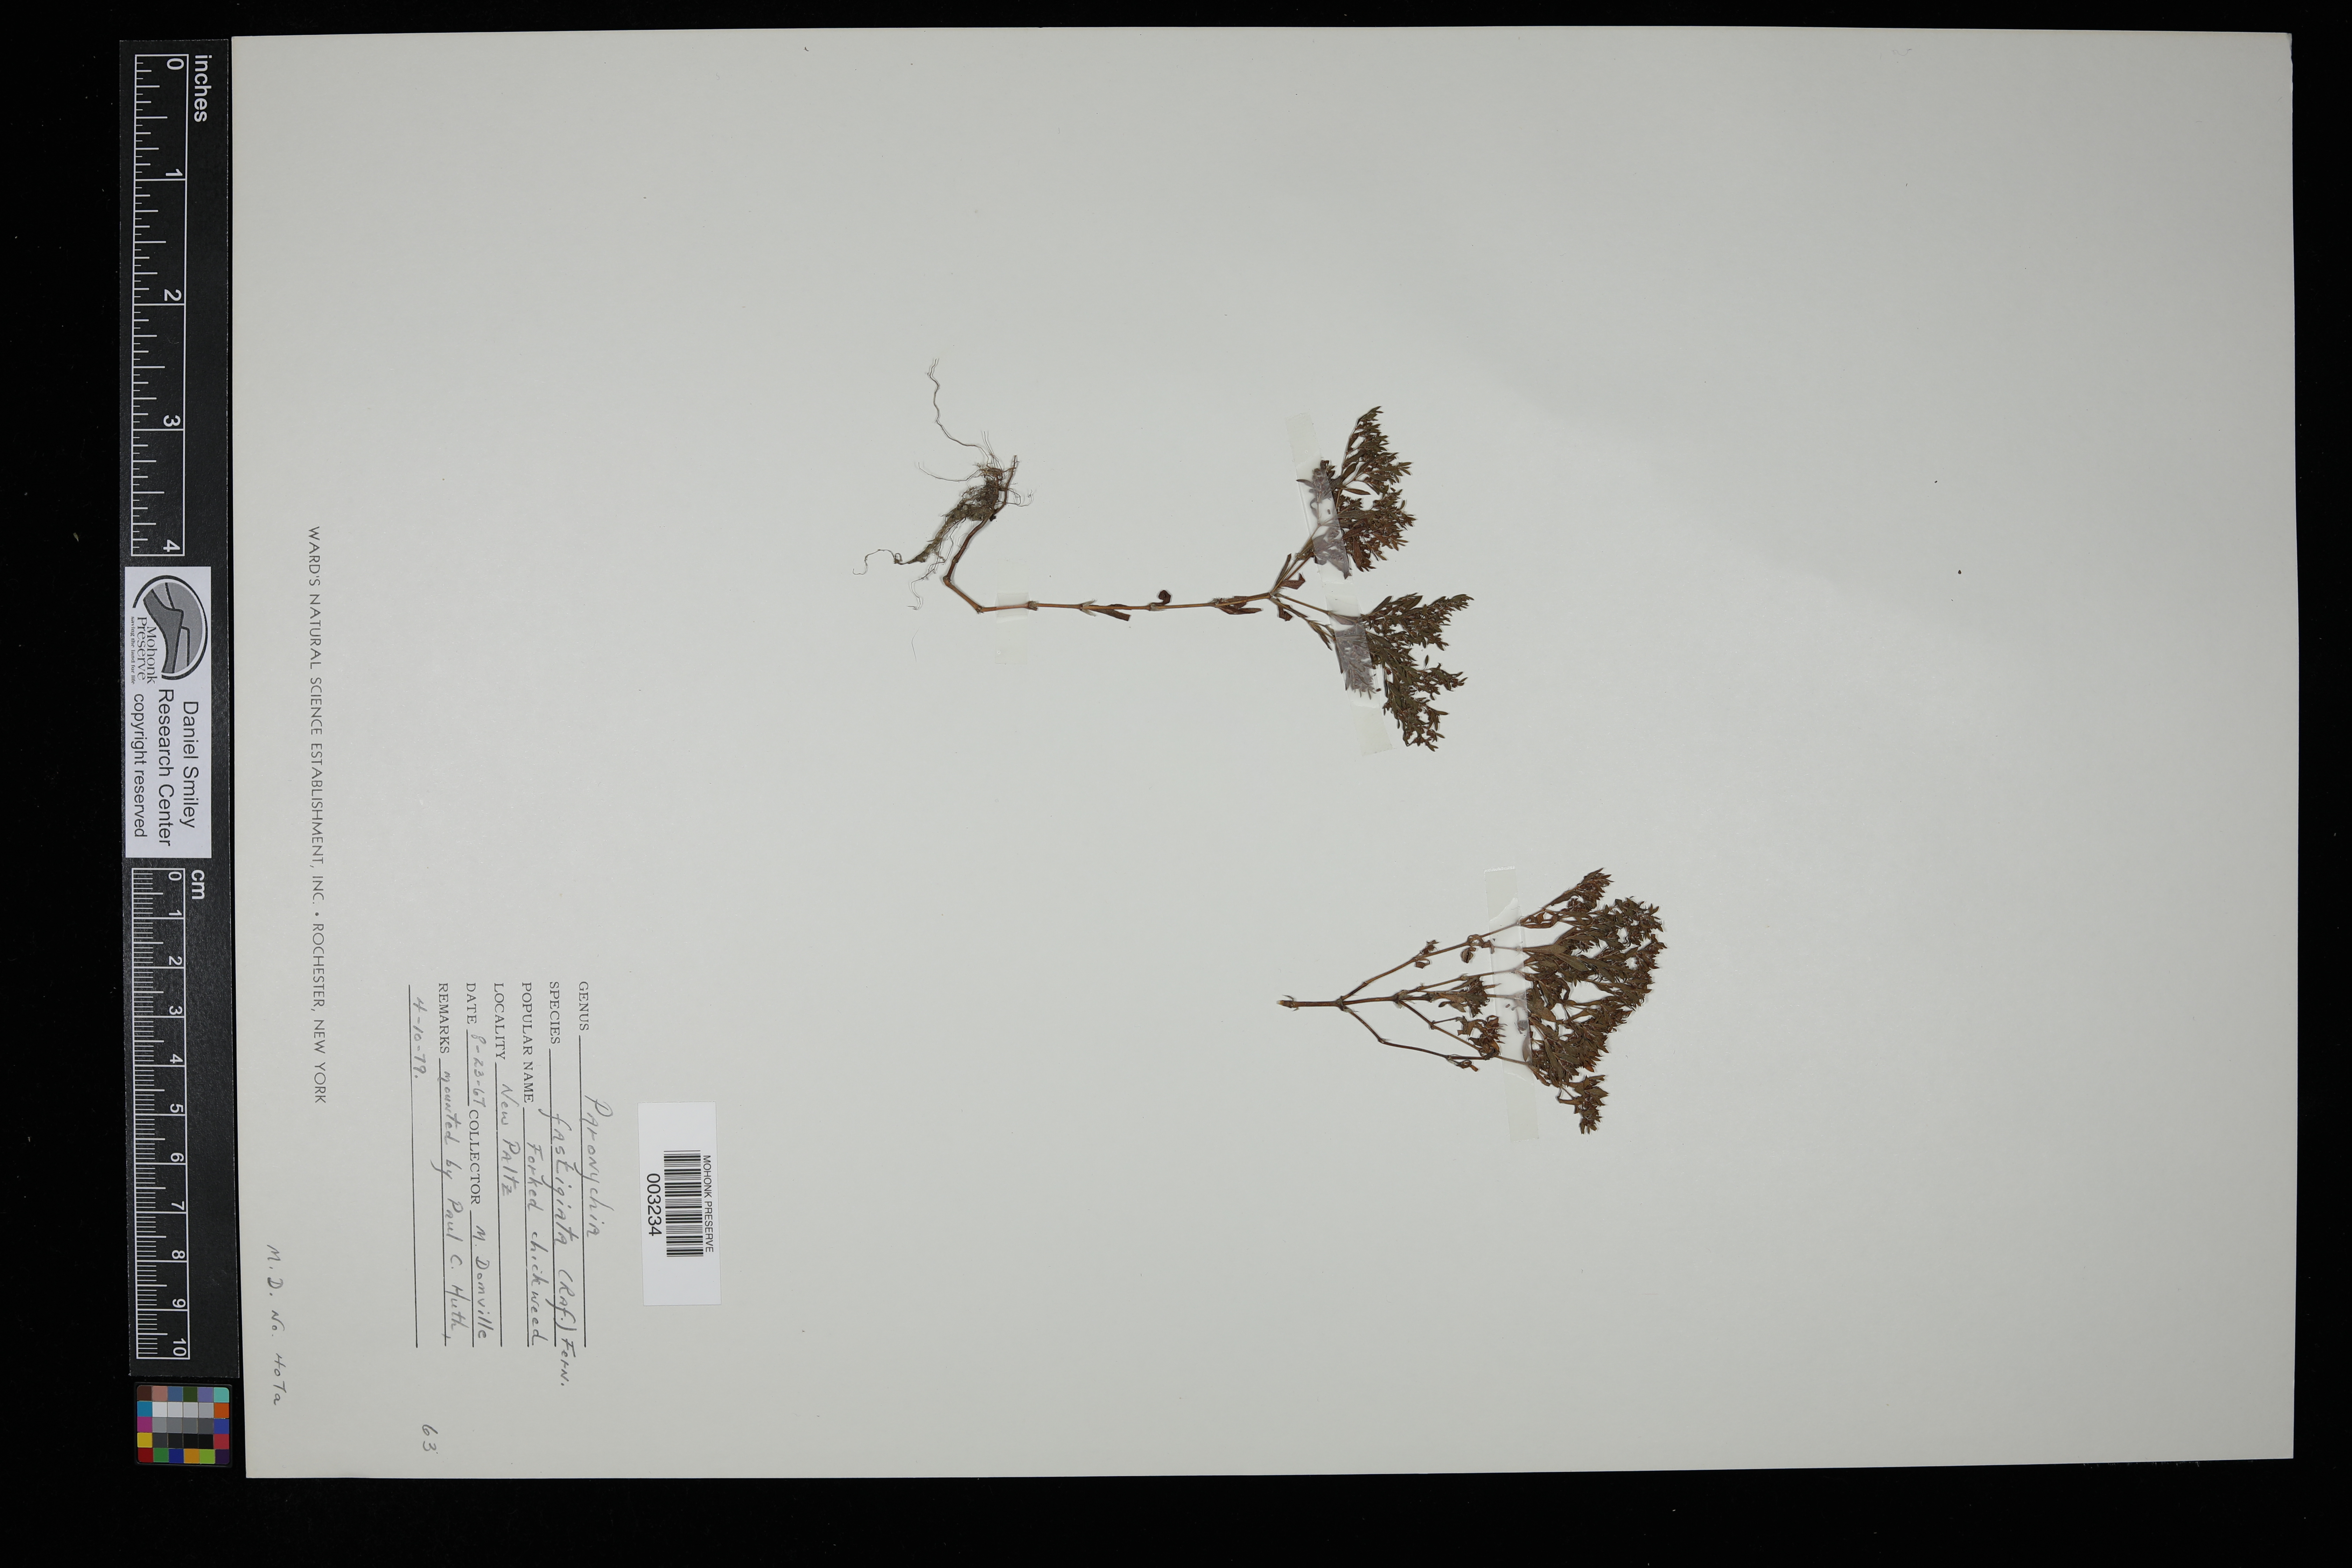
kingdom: Plantae
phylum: Tracheophyta
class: Magnoliopsida
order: Caryophyllales
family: Caryophyllaceae
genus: Paronychia
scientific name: Paronychia fastigiata
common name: Branching forked whitlow-wort
